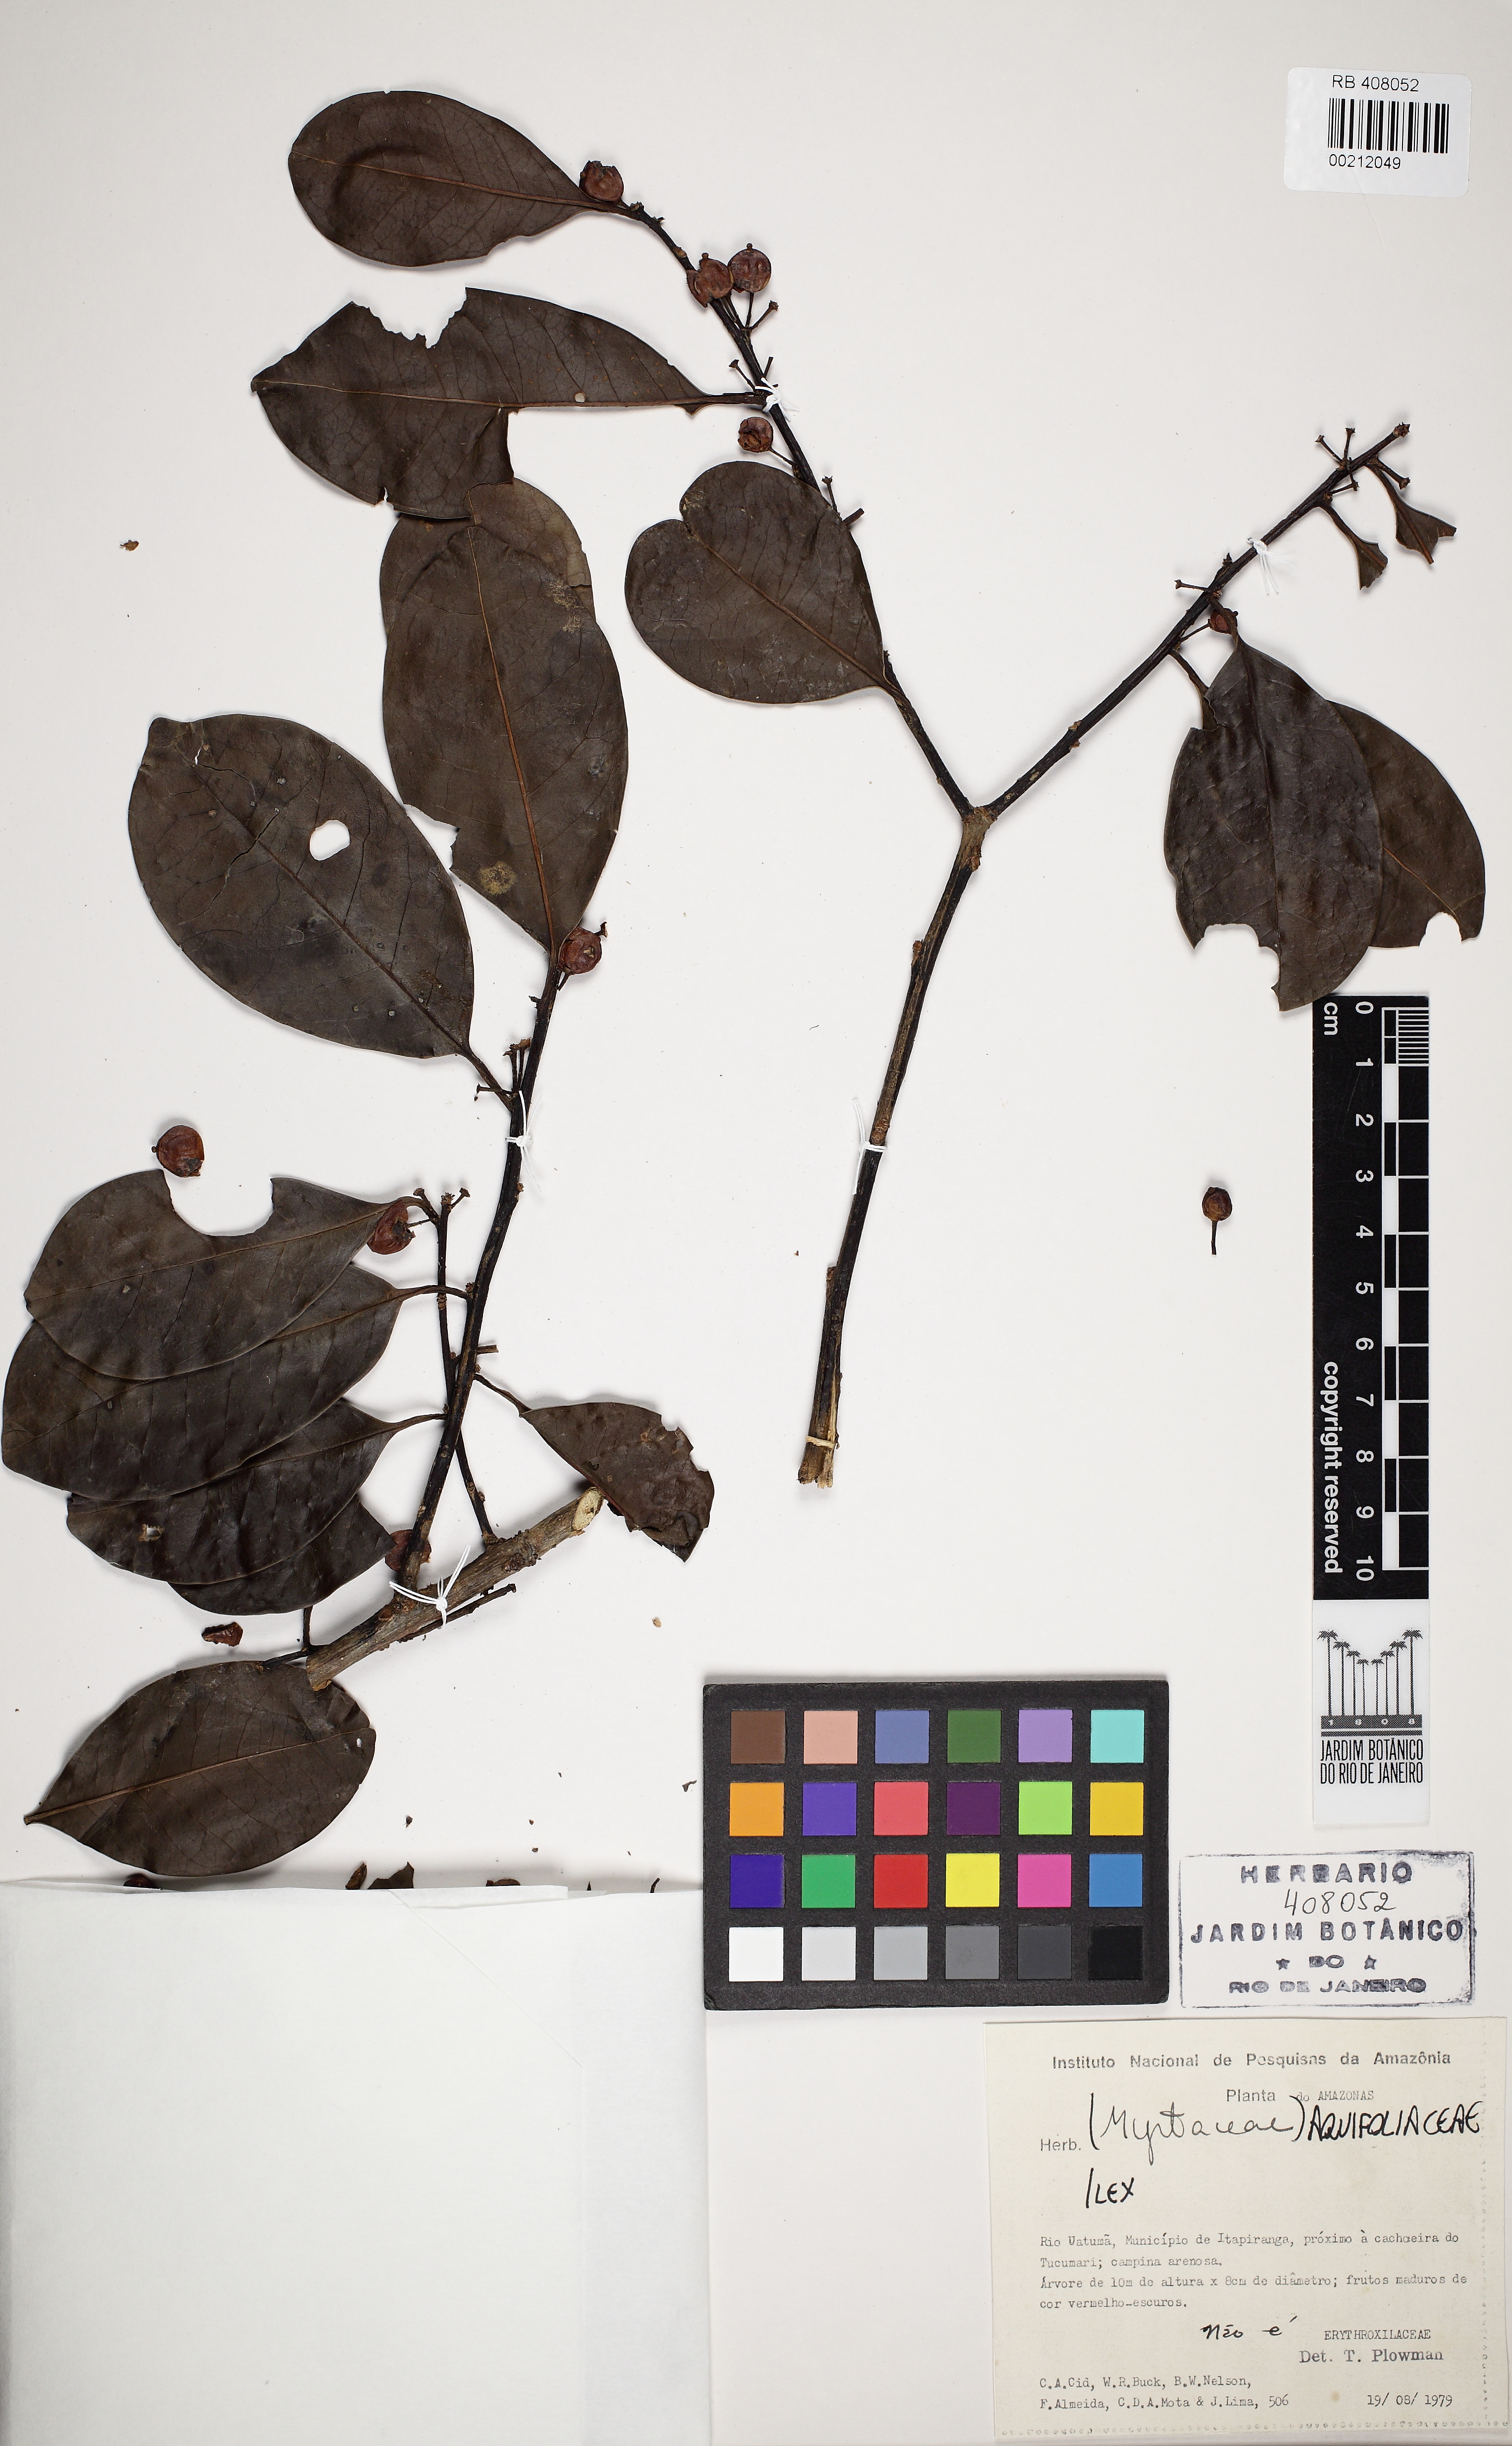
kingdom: Plantae
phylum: Tracheophyta
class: Magnoliopsida
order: Aquifoliales
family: Aquifoliaceae
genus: Ilex
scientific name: Ilex
